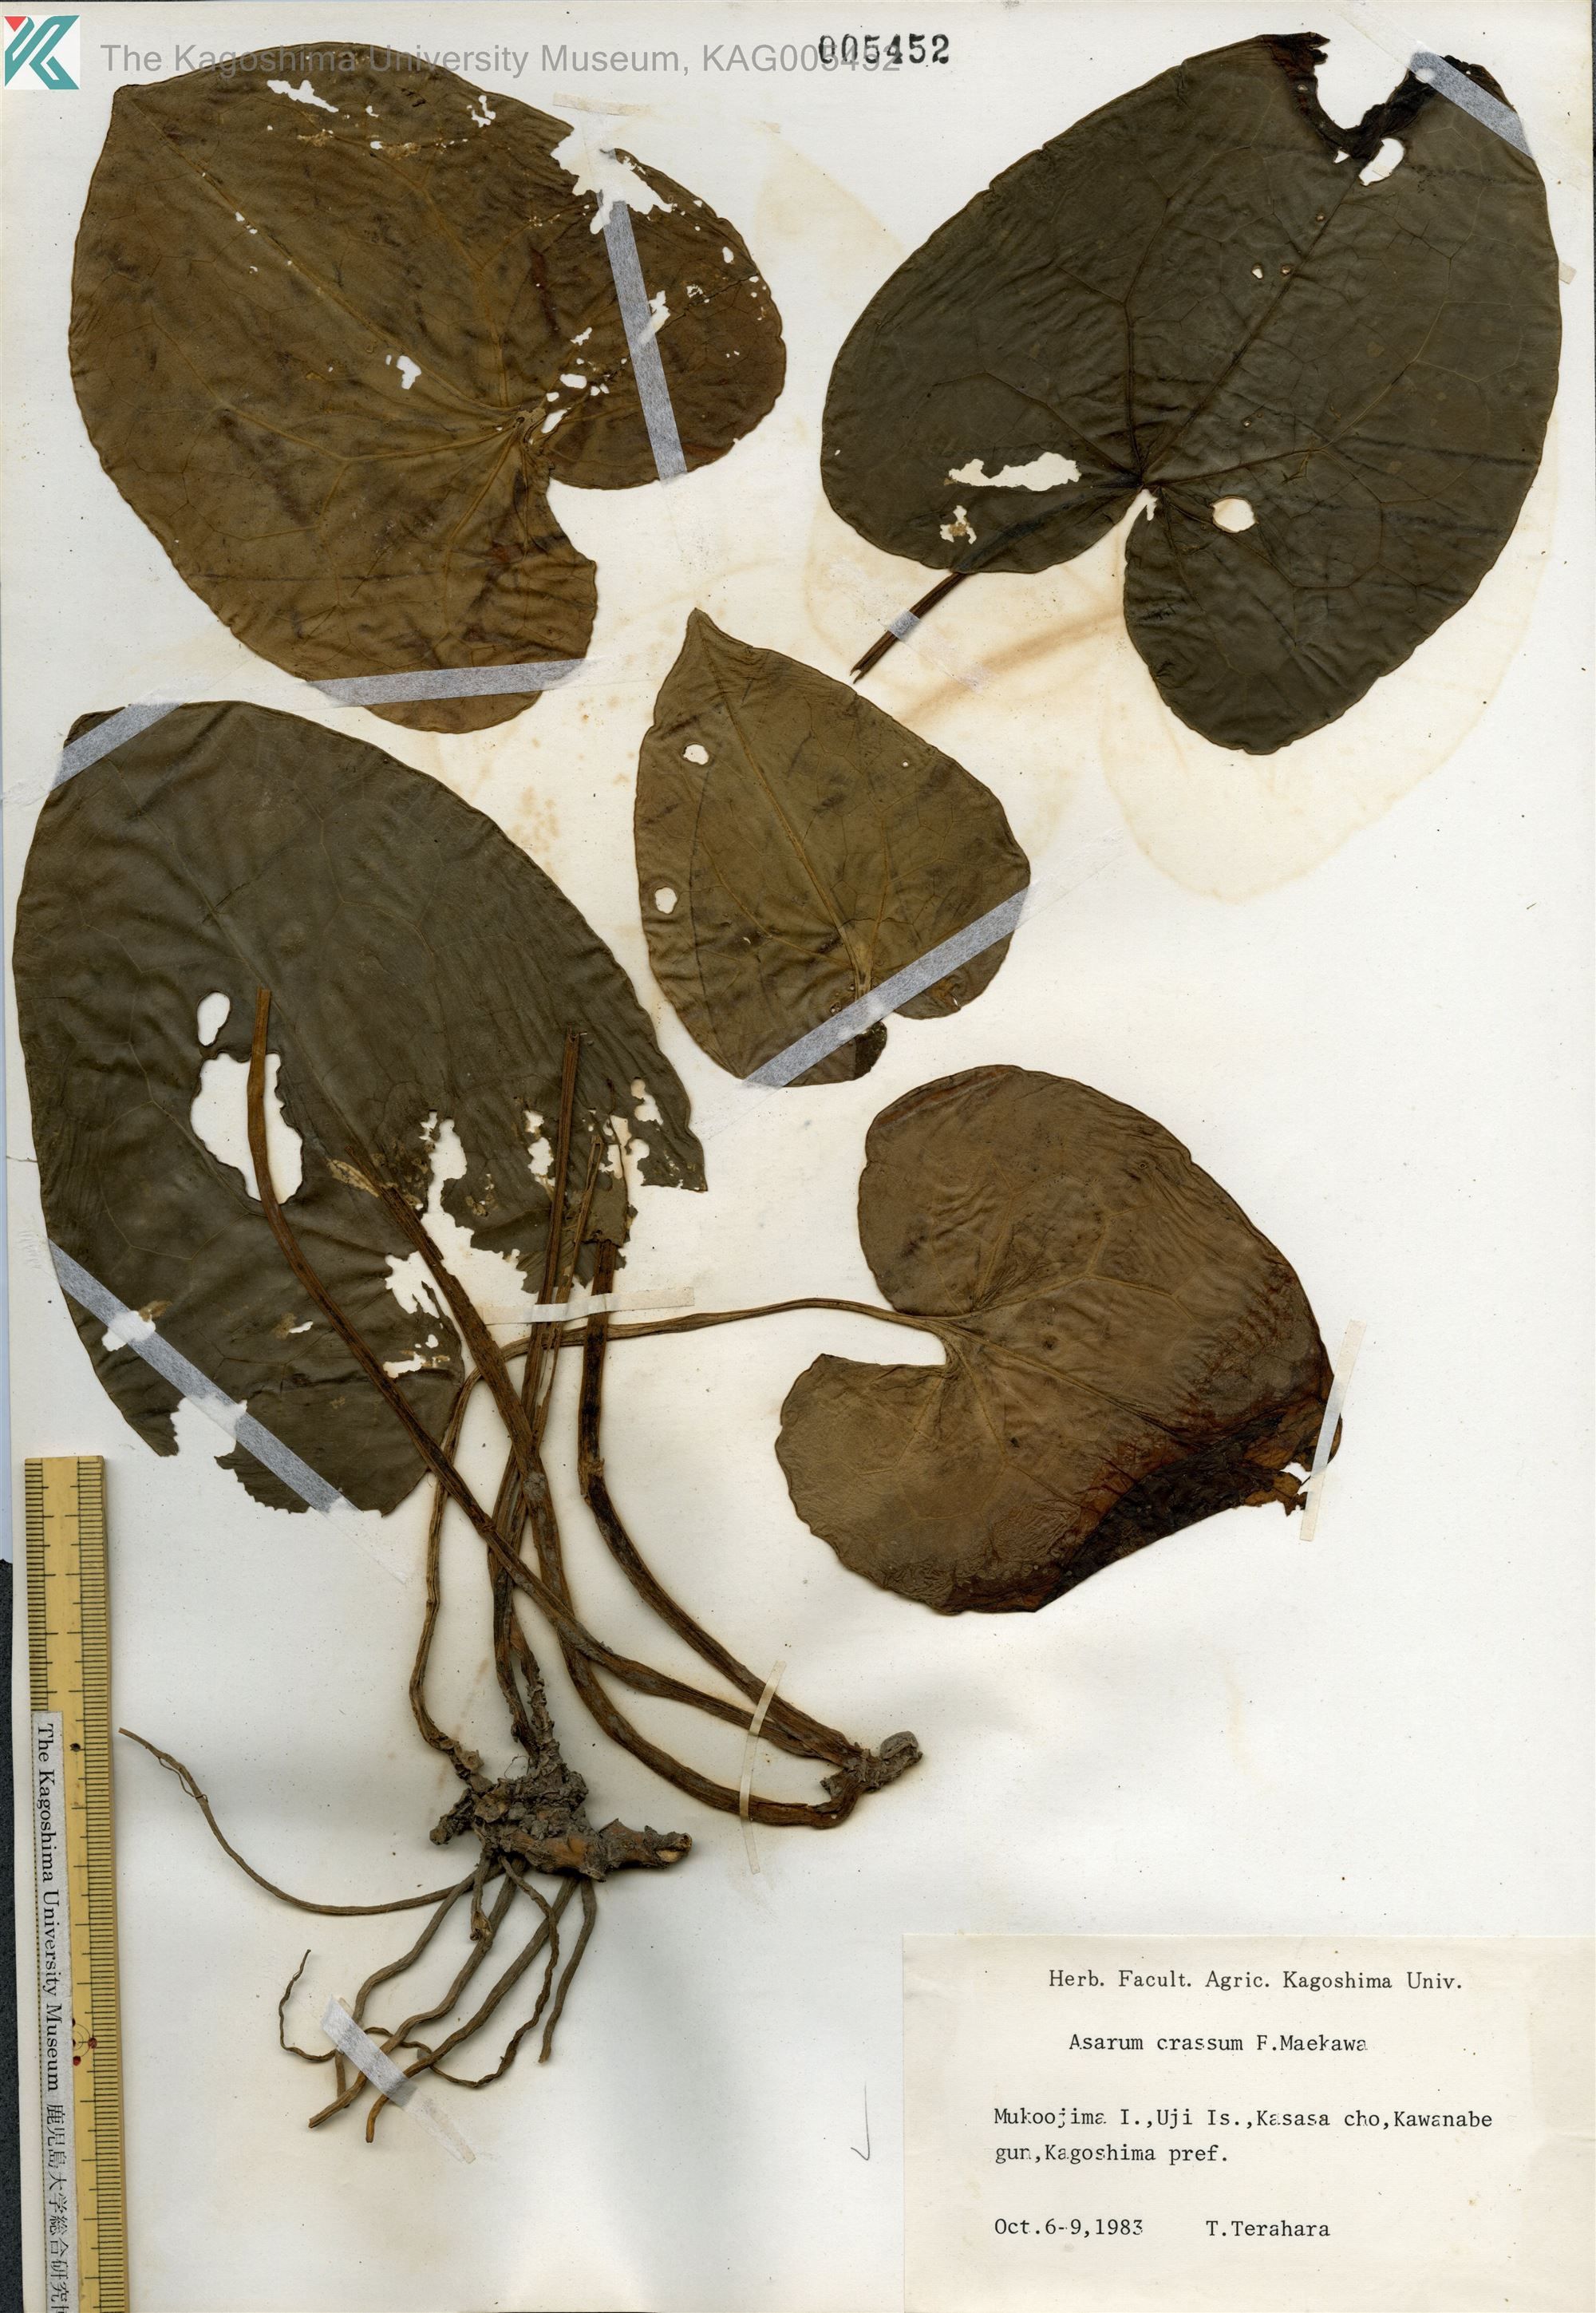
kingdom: Plantae
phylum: Tracheophyta
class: Magnoliopsida
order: Piperales
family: Aristolochiaceae
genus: Asarum
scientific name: Asarum crassum
